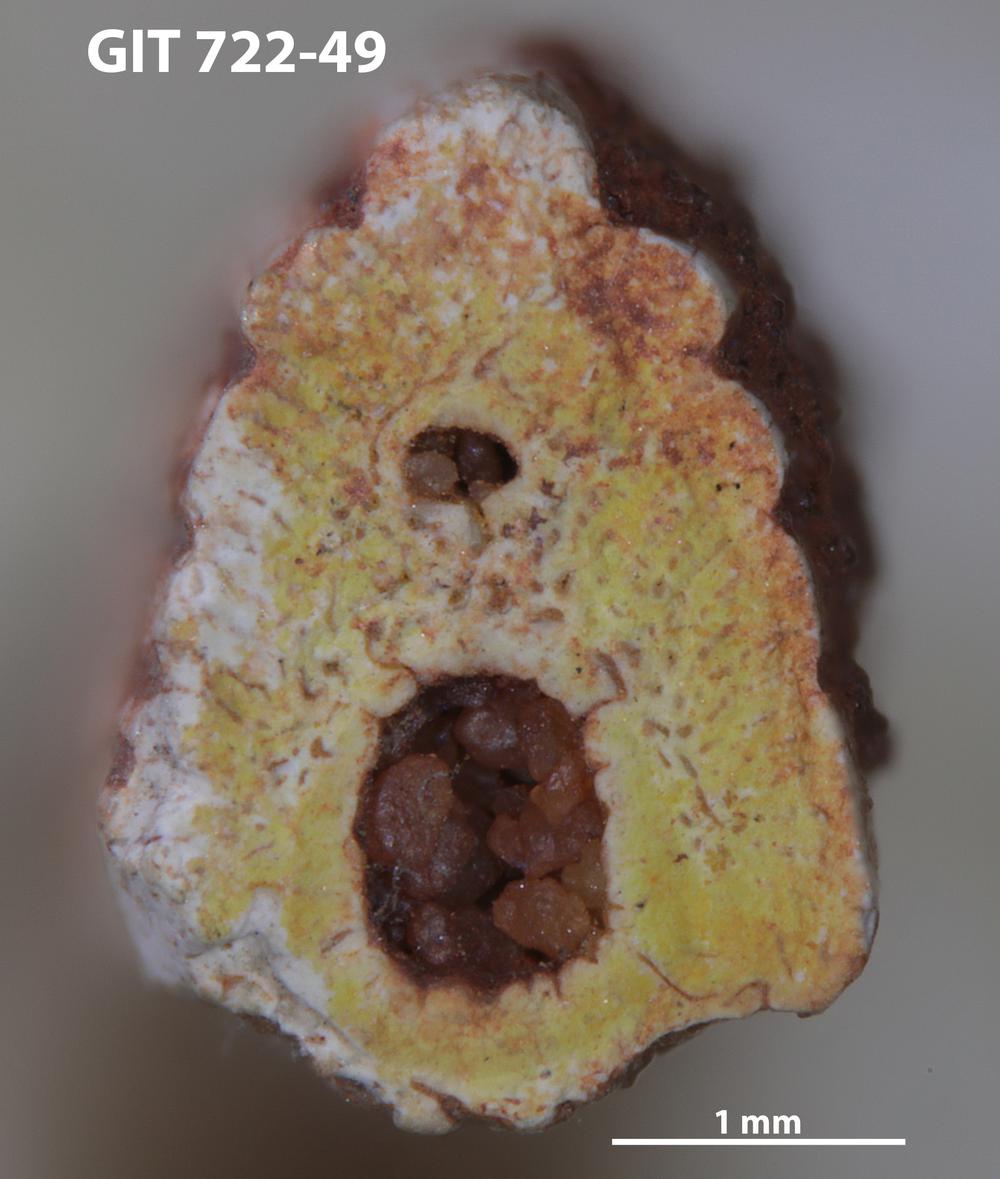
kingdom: Animalia
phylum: Chordata
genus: Devononchus
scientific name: Devononchus concinnus
